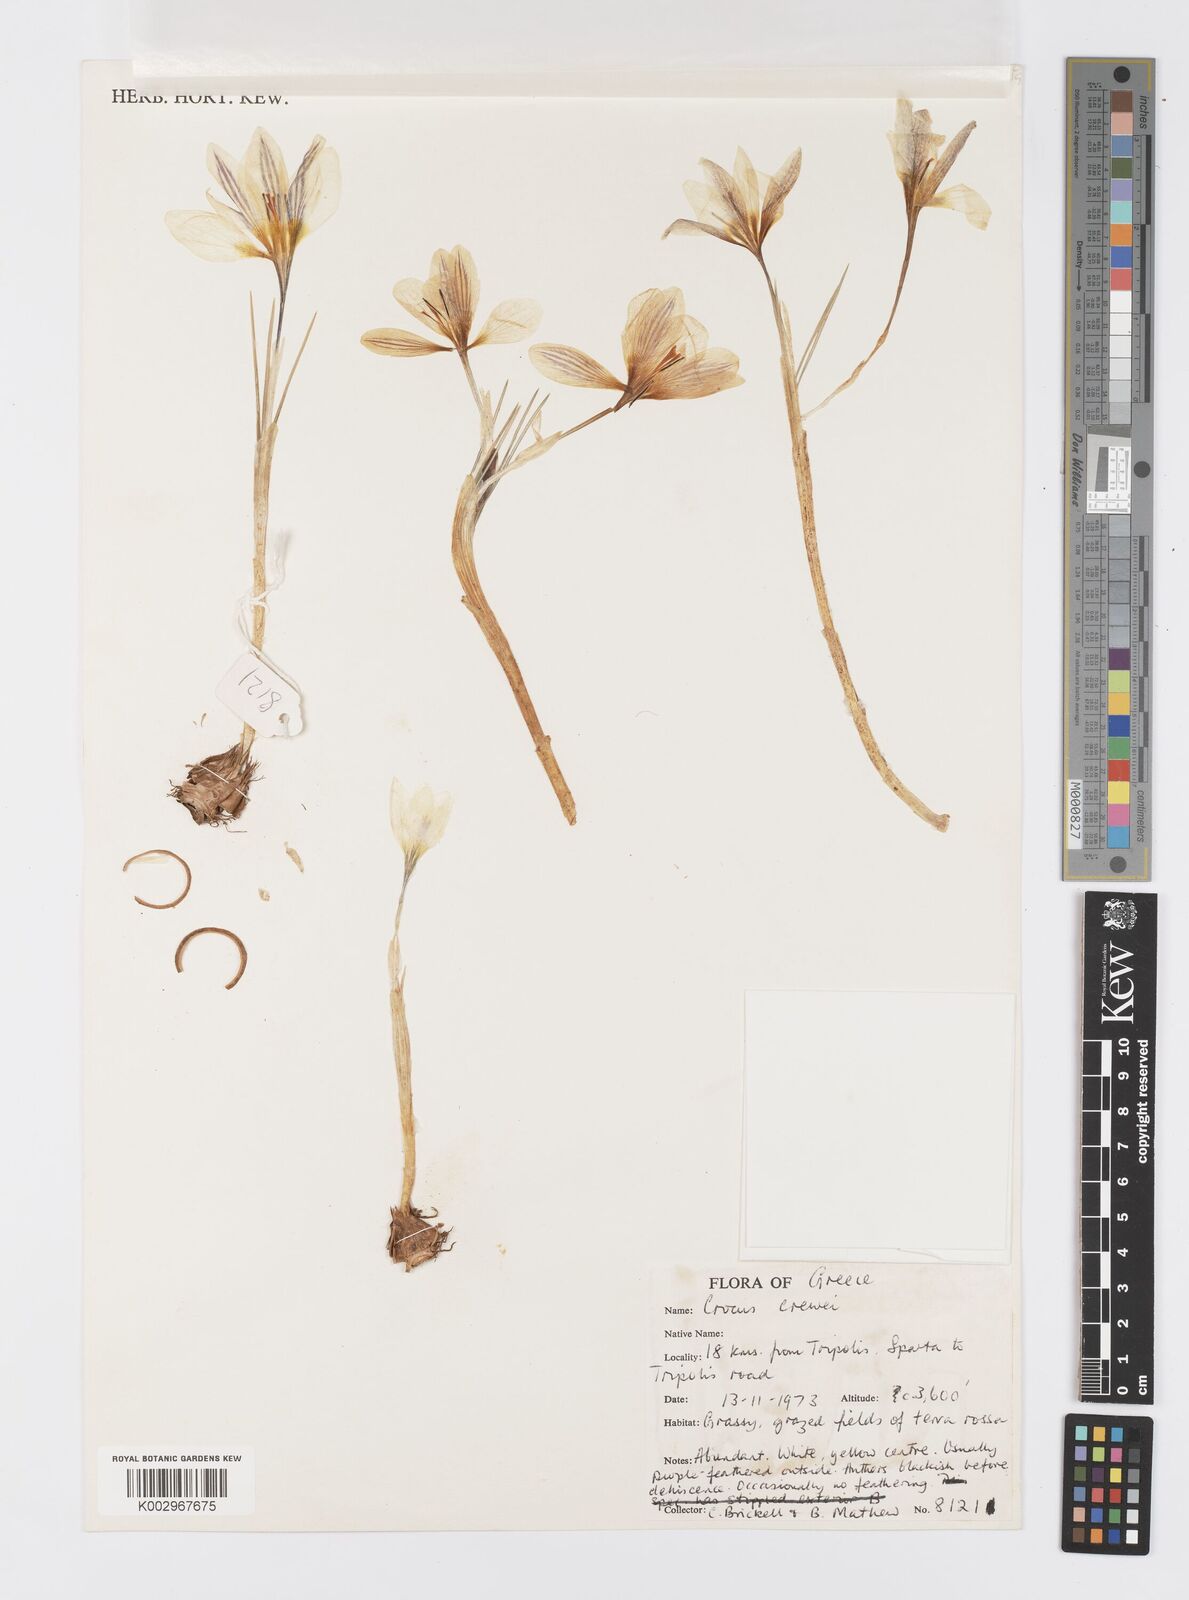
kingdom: Plantae
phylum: Tracheophyta
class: Liliopsida
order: Asparagales
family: Iridaceae
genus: Crocus
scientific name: Crocus melantherus
